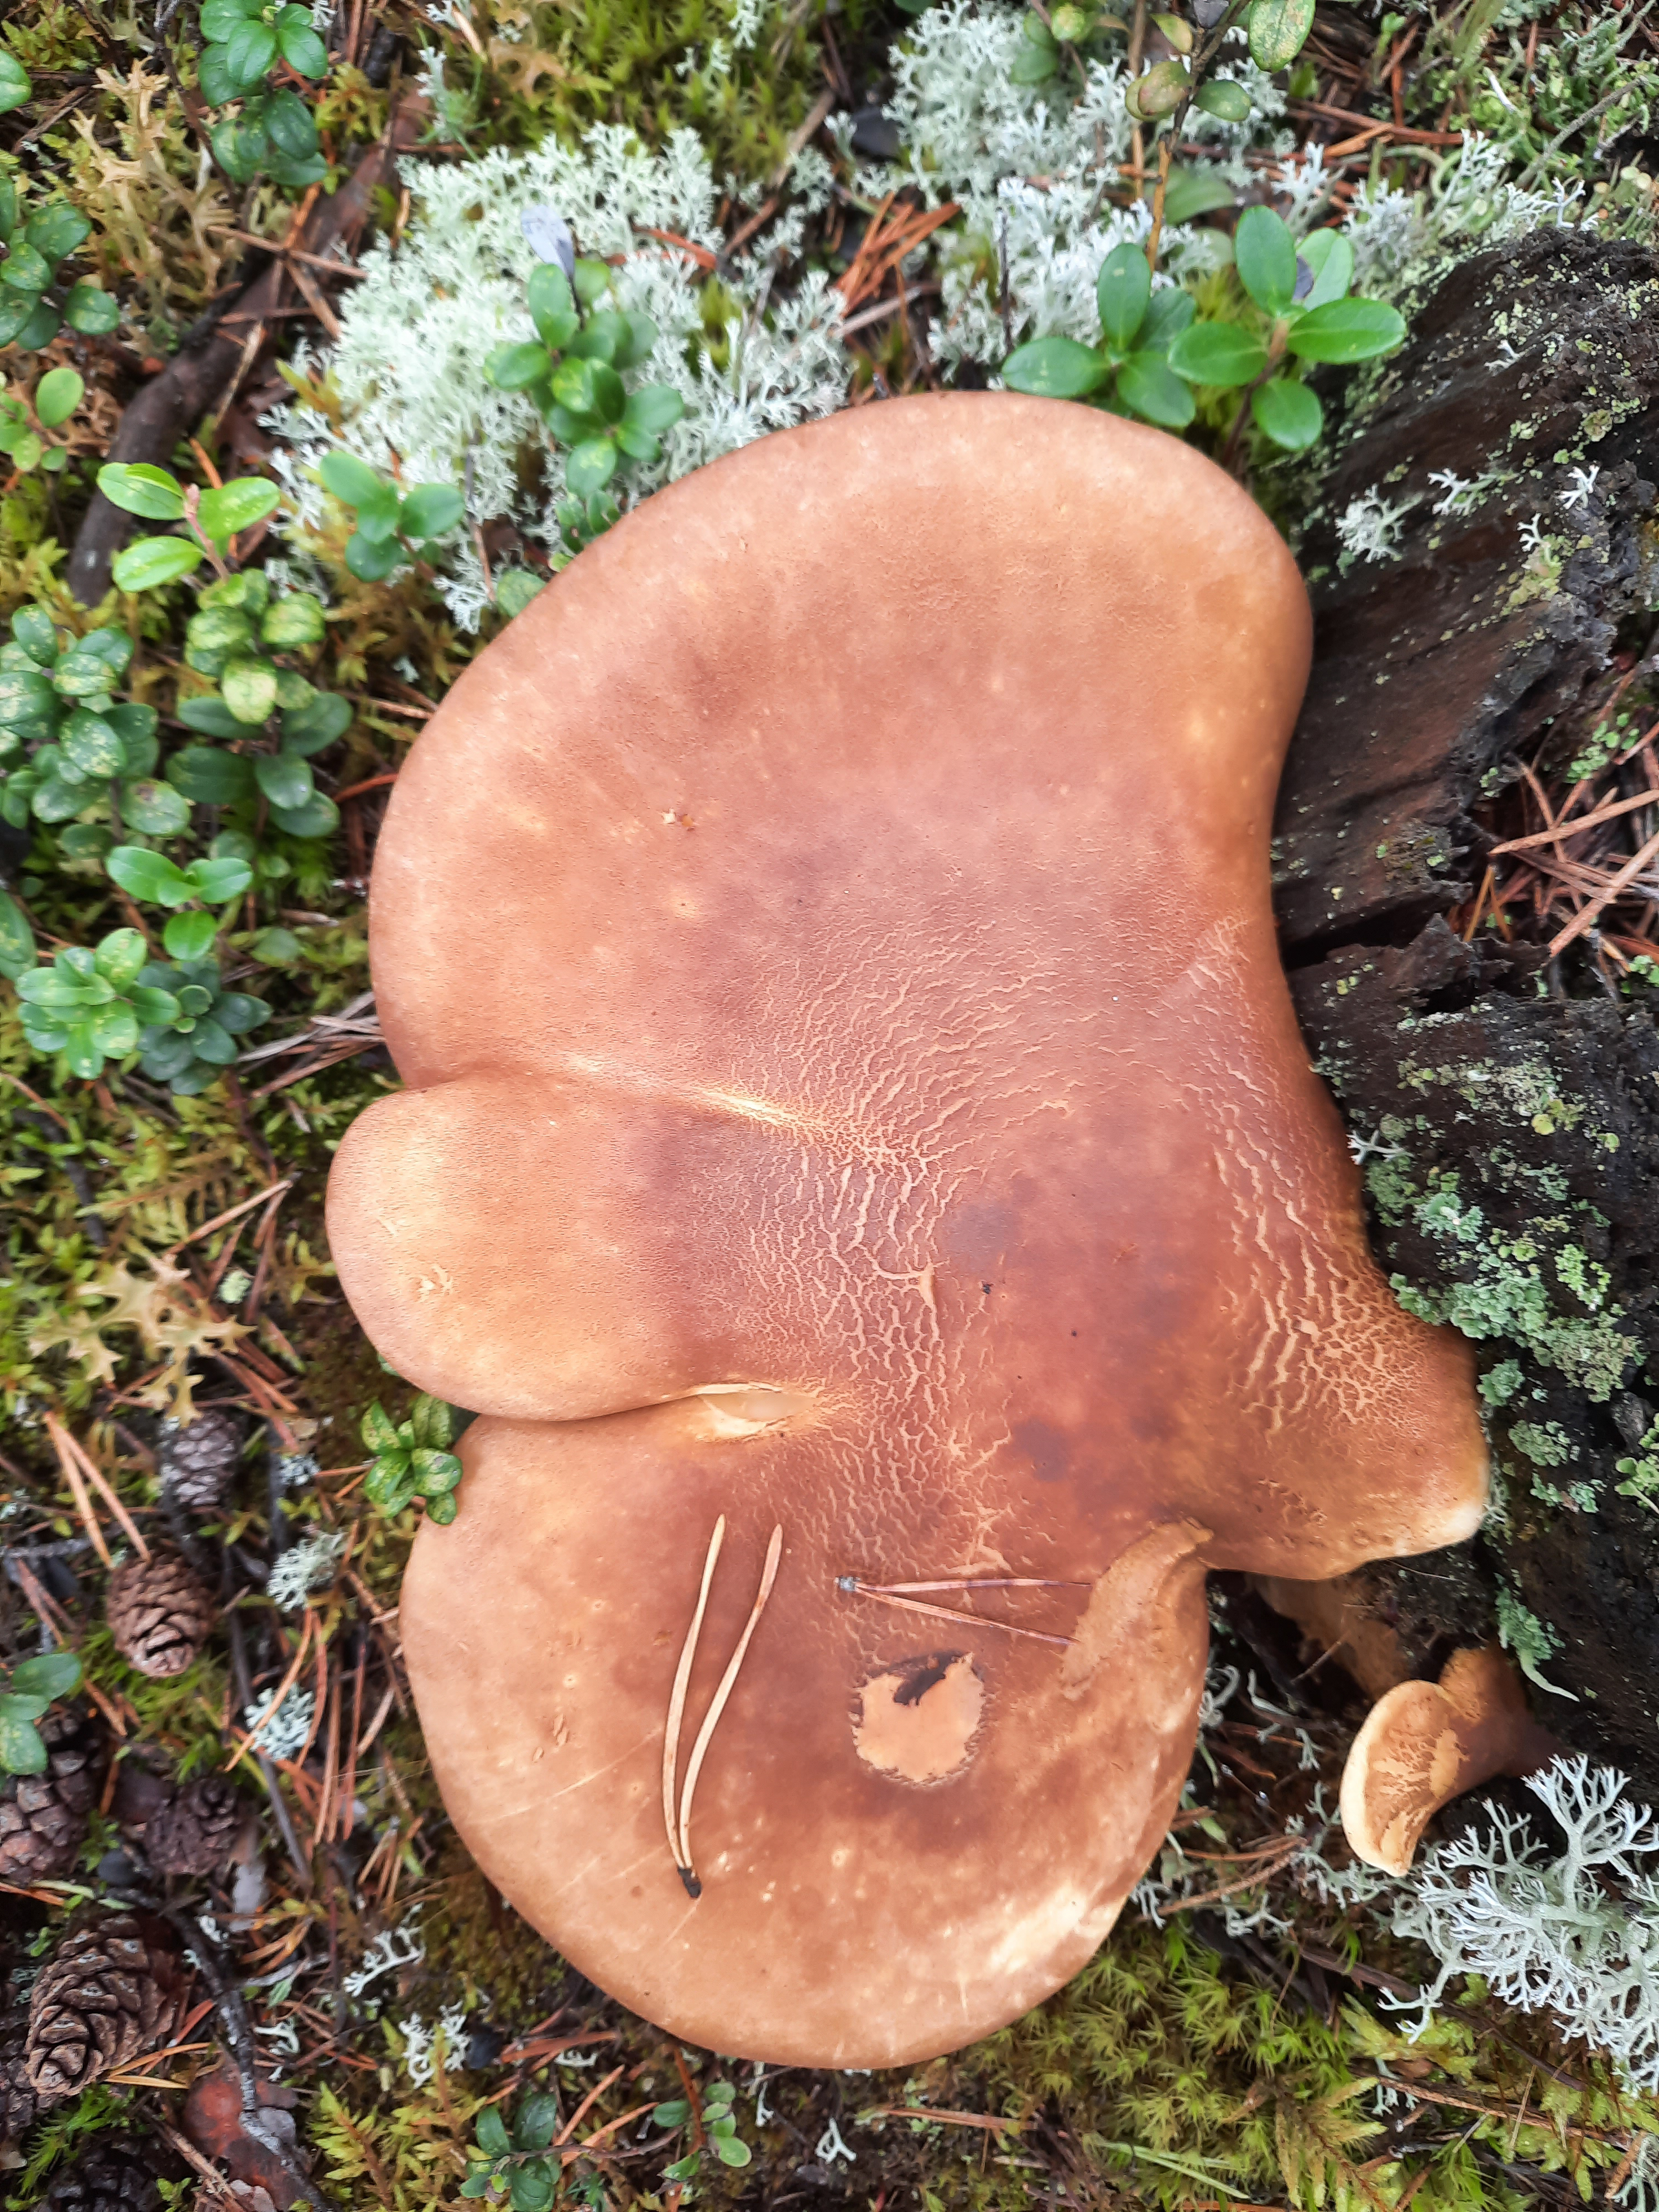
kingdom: Fungi
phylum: Basidiomycota
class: Agaricomycetes
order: Boletales
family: Tapinellaceae
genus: Tapinella
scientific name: Tapinella atrotomentosa
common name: Velvet rollrim
